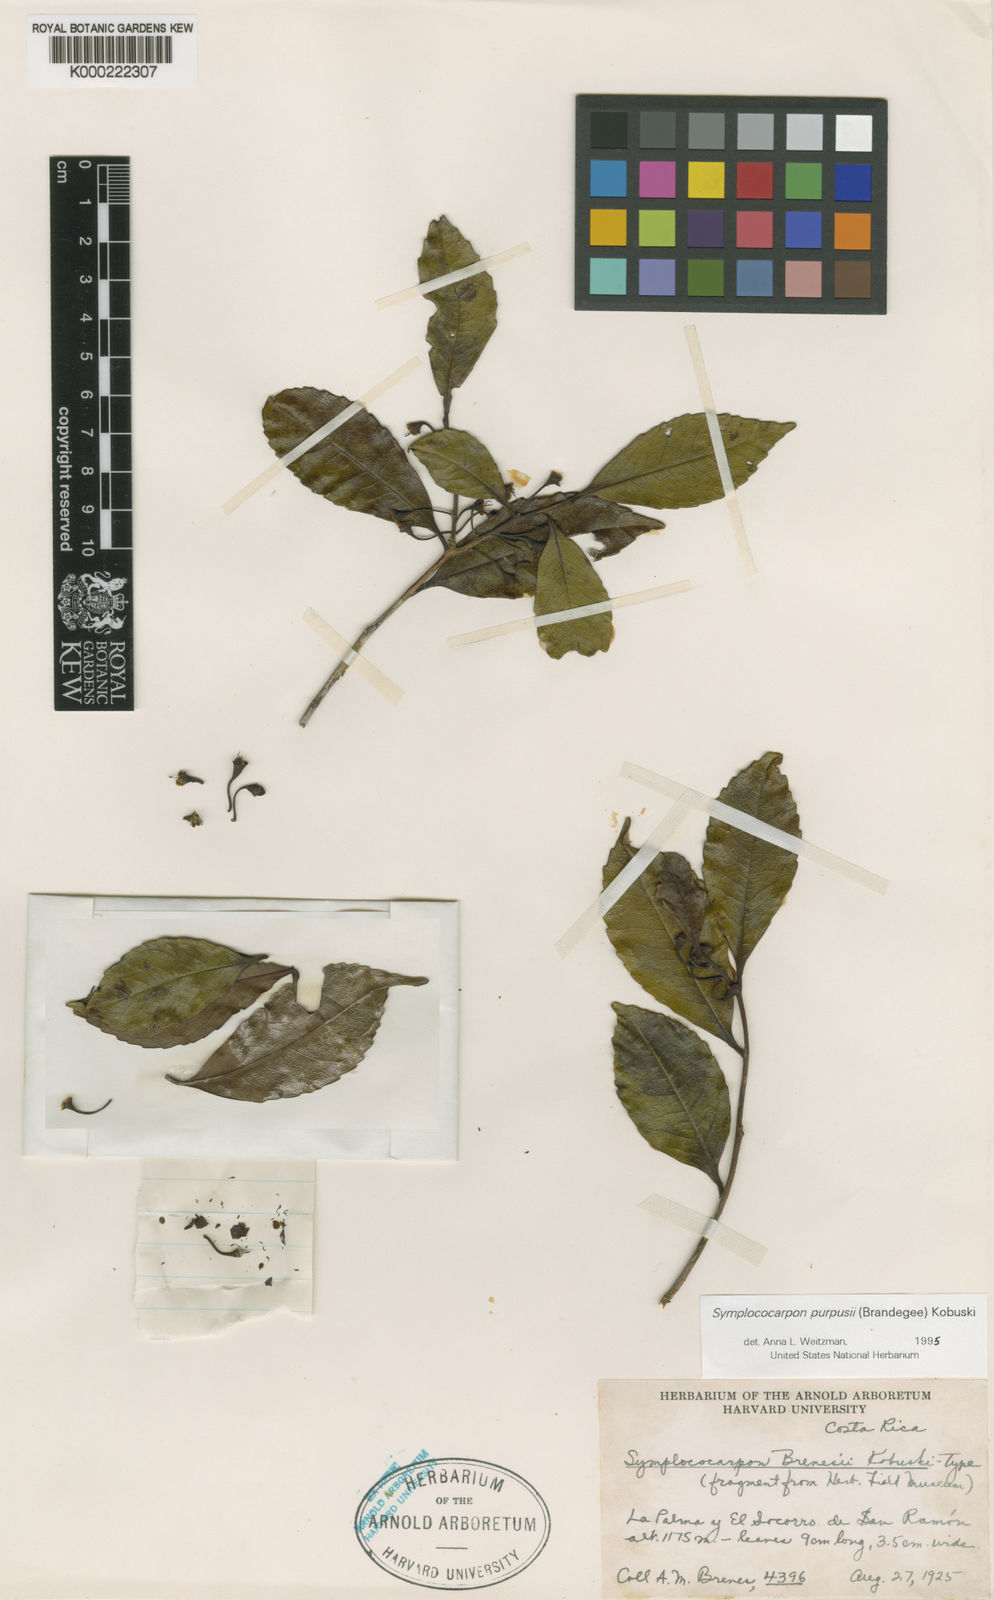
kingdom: Plantae
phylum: Tracheophyta
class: Magnoliopsida
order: Ericales
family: Pentaphylacaceae
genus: Symplococarpon
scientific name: Symplococarpon purpusii
